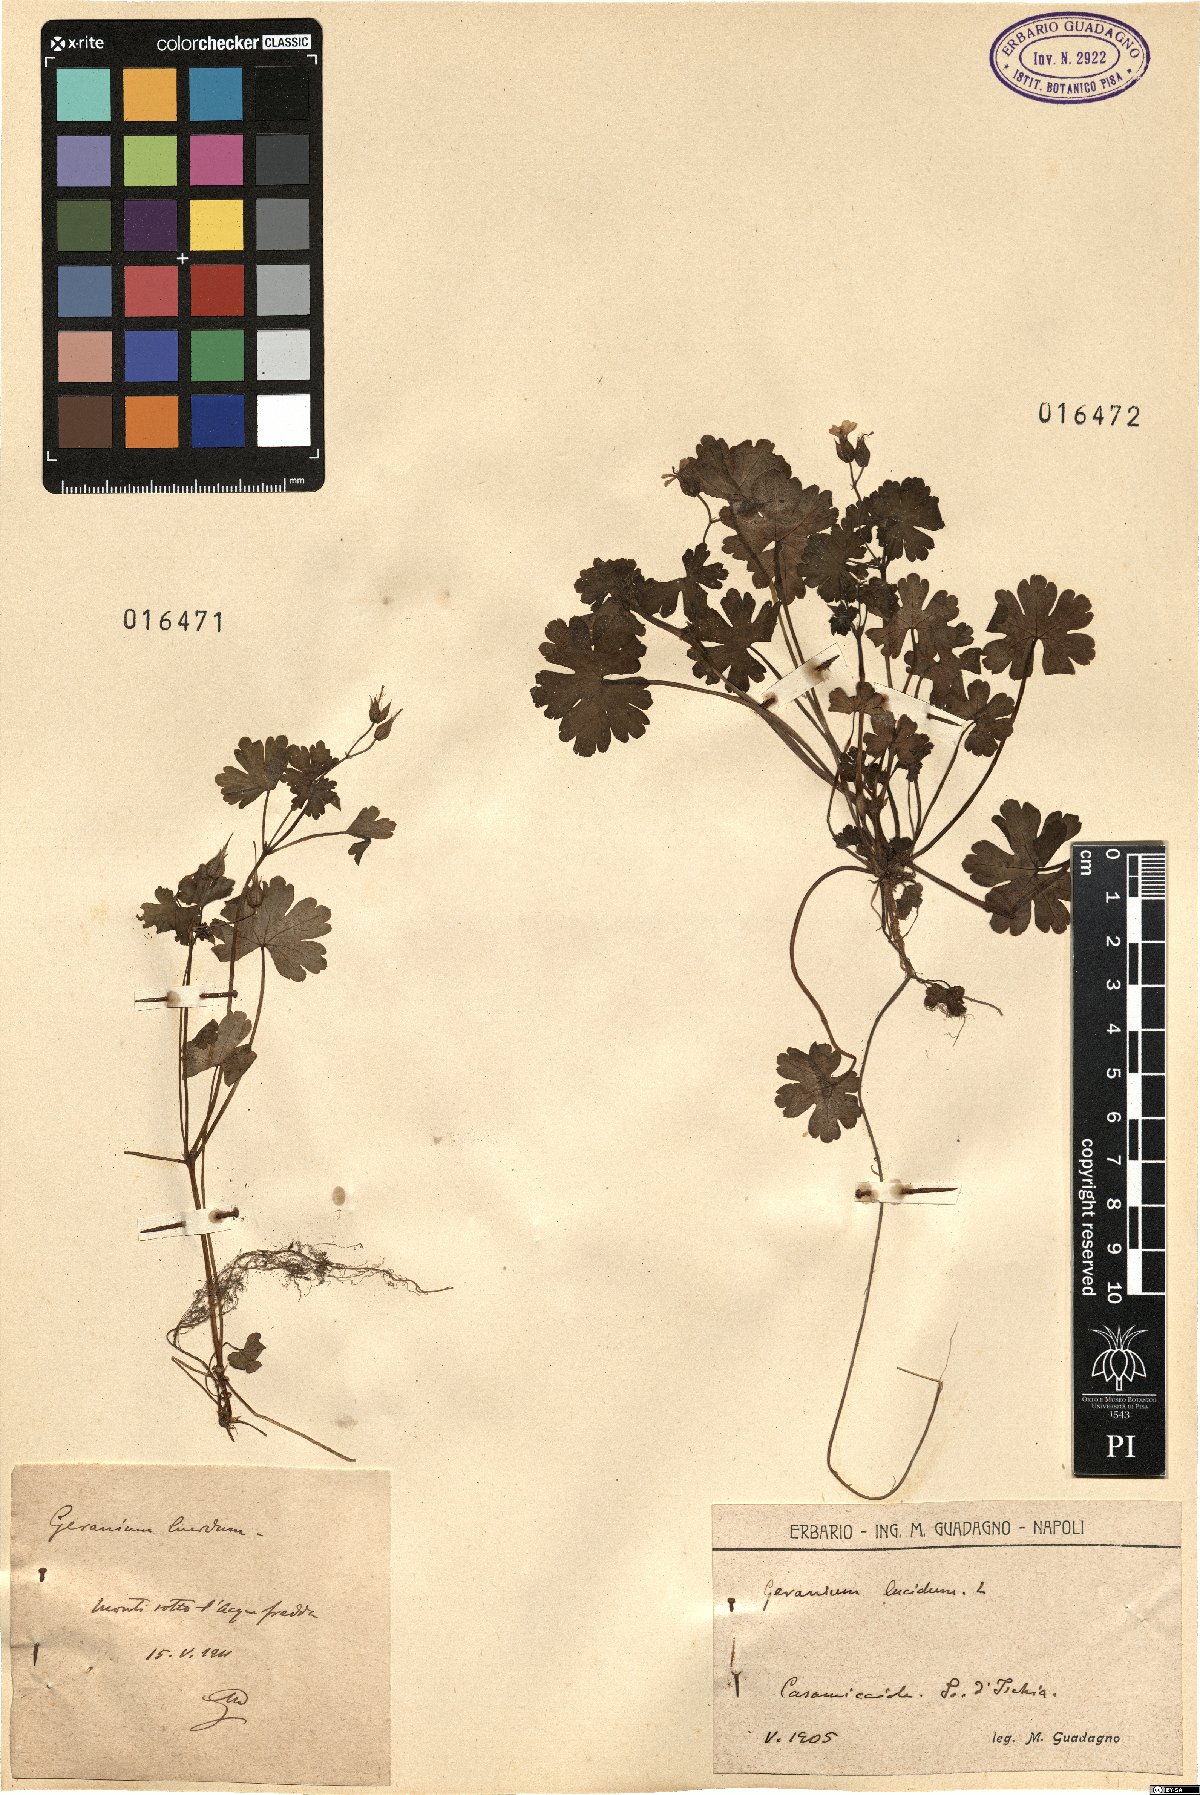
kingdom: Plantae
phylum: Tracheophyta
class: Magnoliopsida
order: Geraniales
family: Geraniaceae
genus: Geranium
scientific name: Geranium lucidum
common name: Shining crane's-bill
